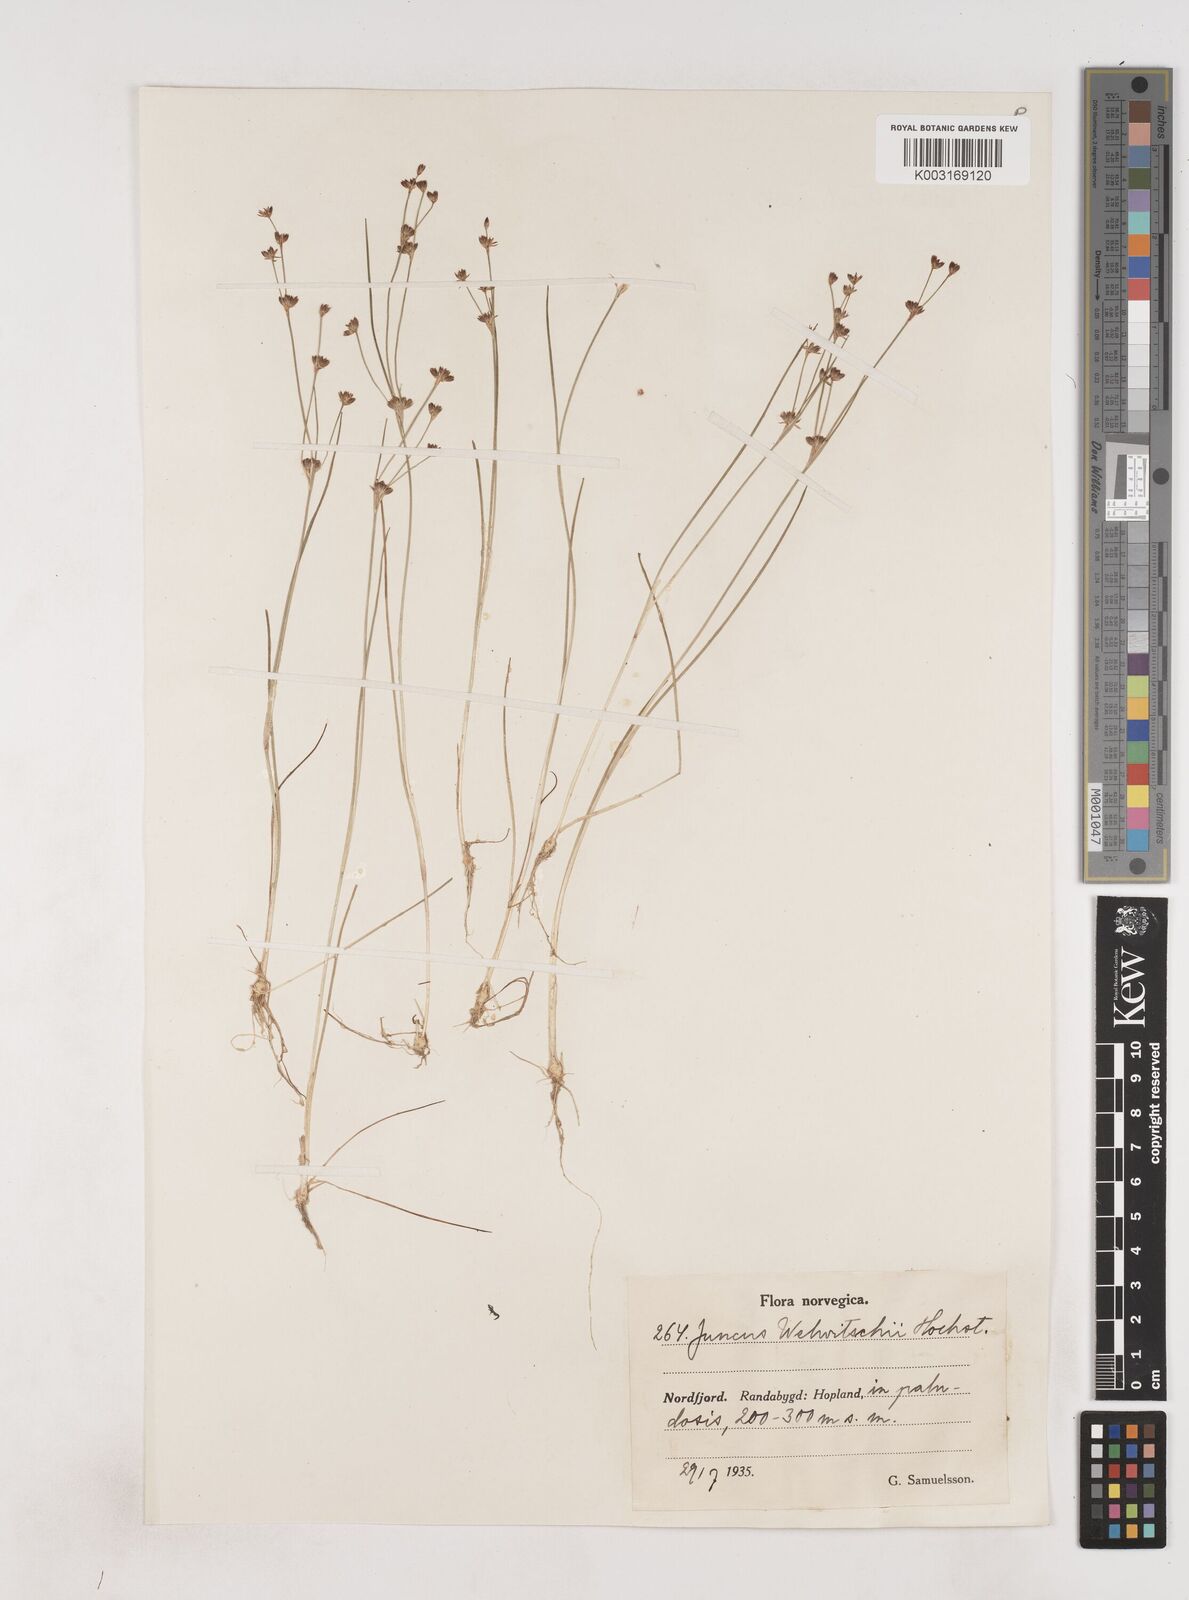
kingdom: Plantae
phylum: Tracheophyta
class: Liliopsida
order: Poales
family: Juncaceae
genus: Juncus
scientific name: Juncus bulbosus
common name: Bulbous rush
